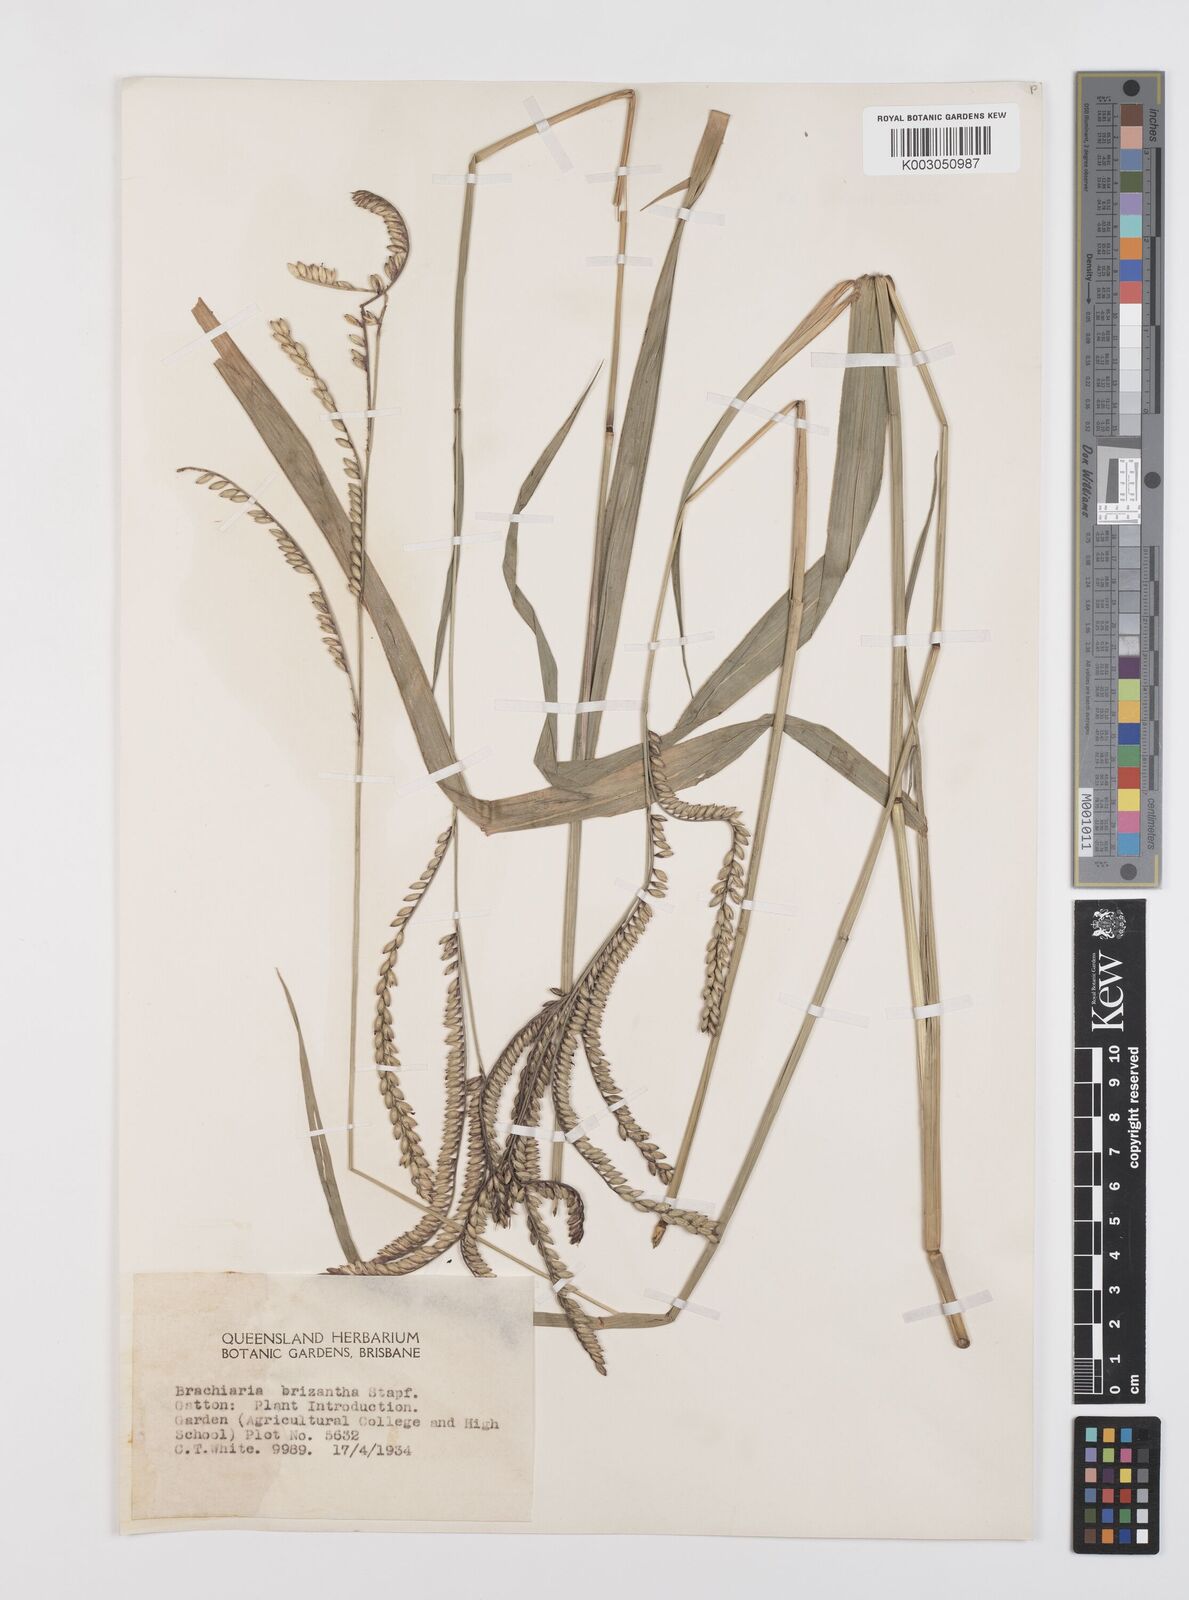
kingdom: Plantae
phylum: Tracheophyta
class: Liliopsida
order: Poales
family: Poaceae
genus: Urochloa
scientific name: Urochloa brizantha
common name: Palisade signalgrass
